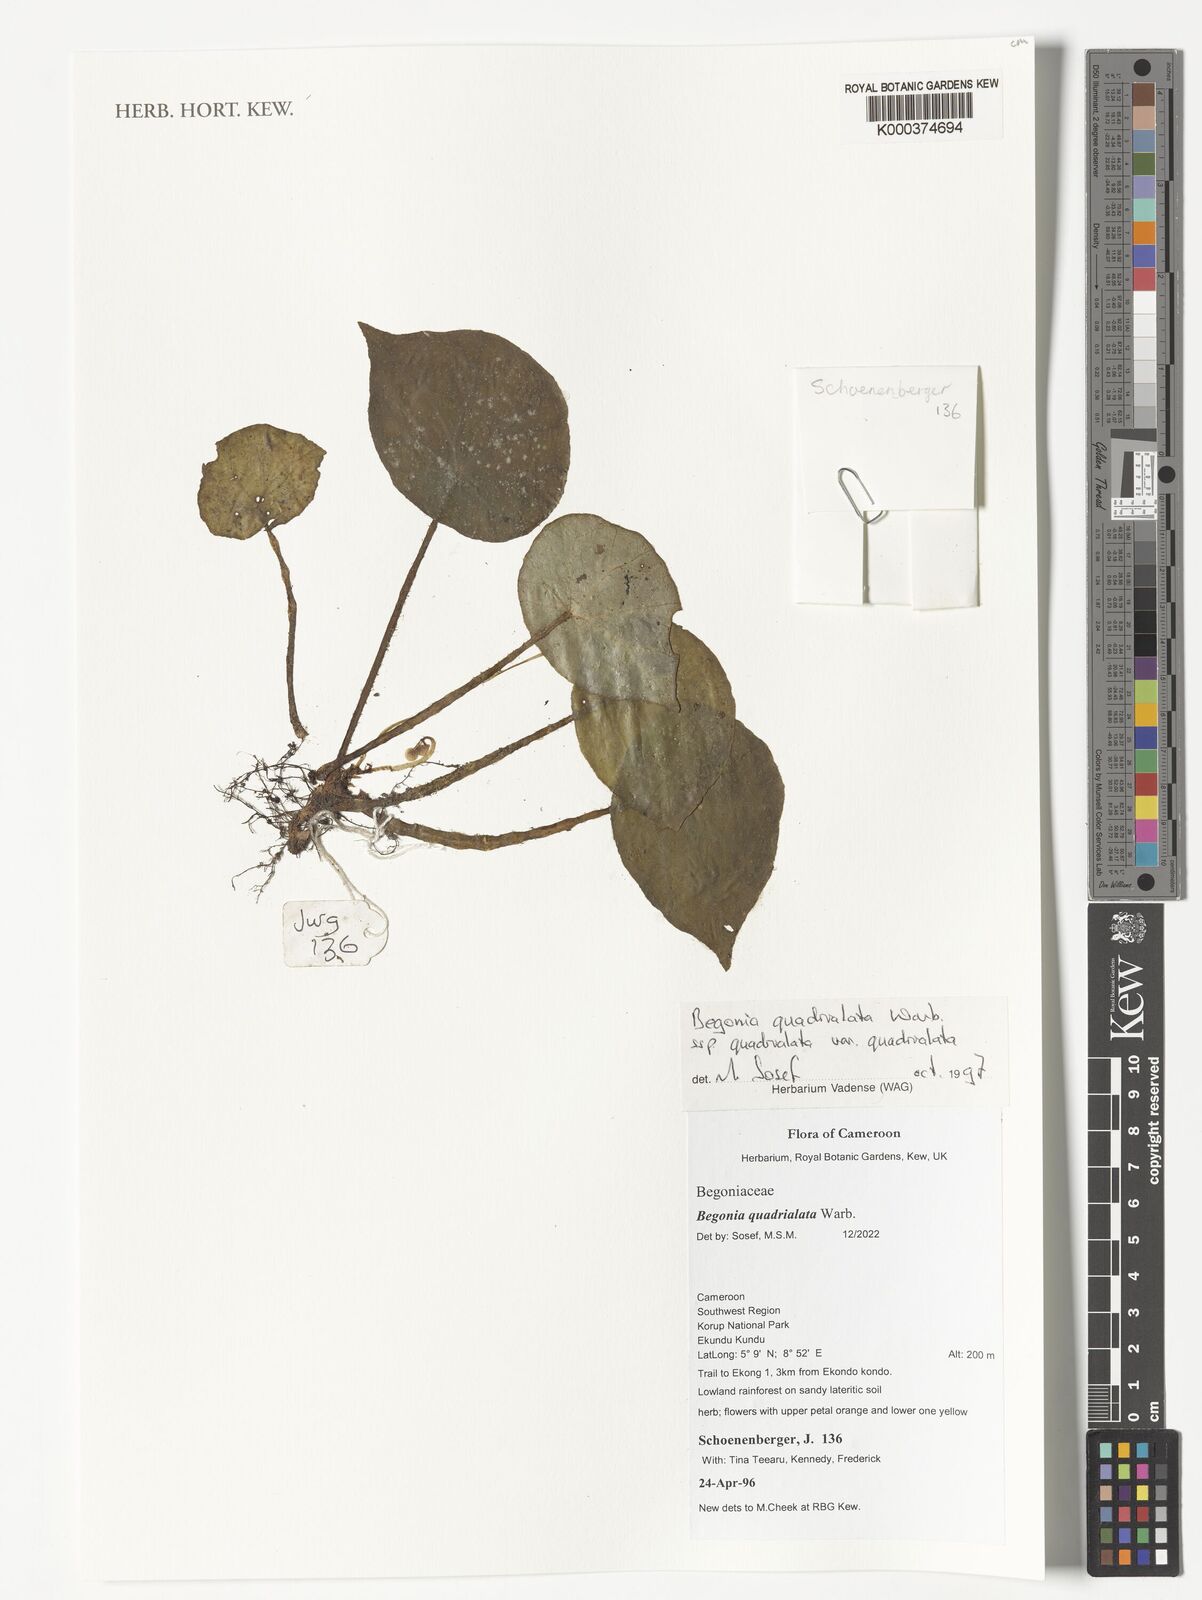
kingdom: Plantae
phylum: Tracheophyta
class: Magnoliopsida
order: Cucurbitales
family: Begoniaceae
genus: Begonia
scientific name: Begonia quadrialata
